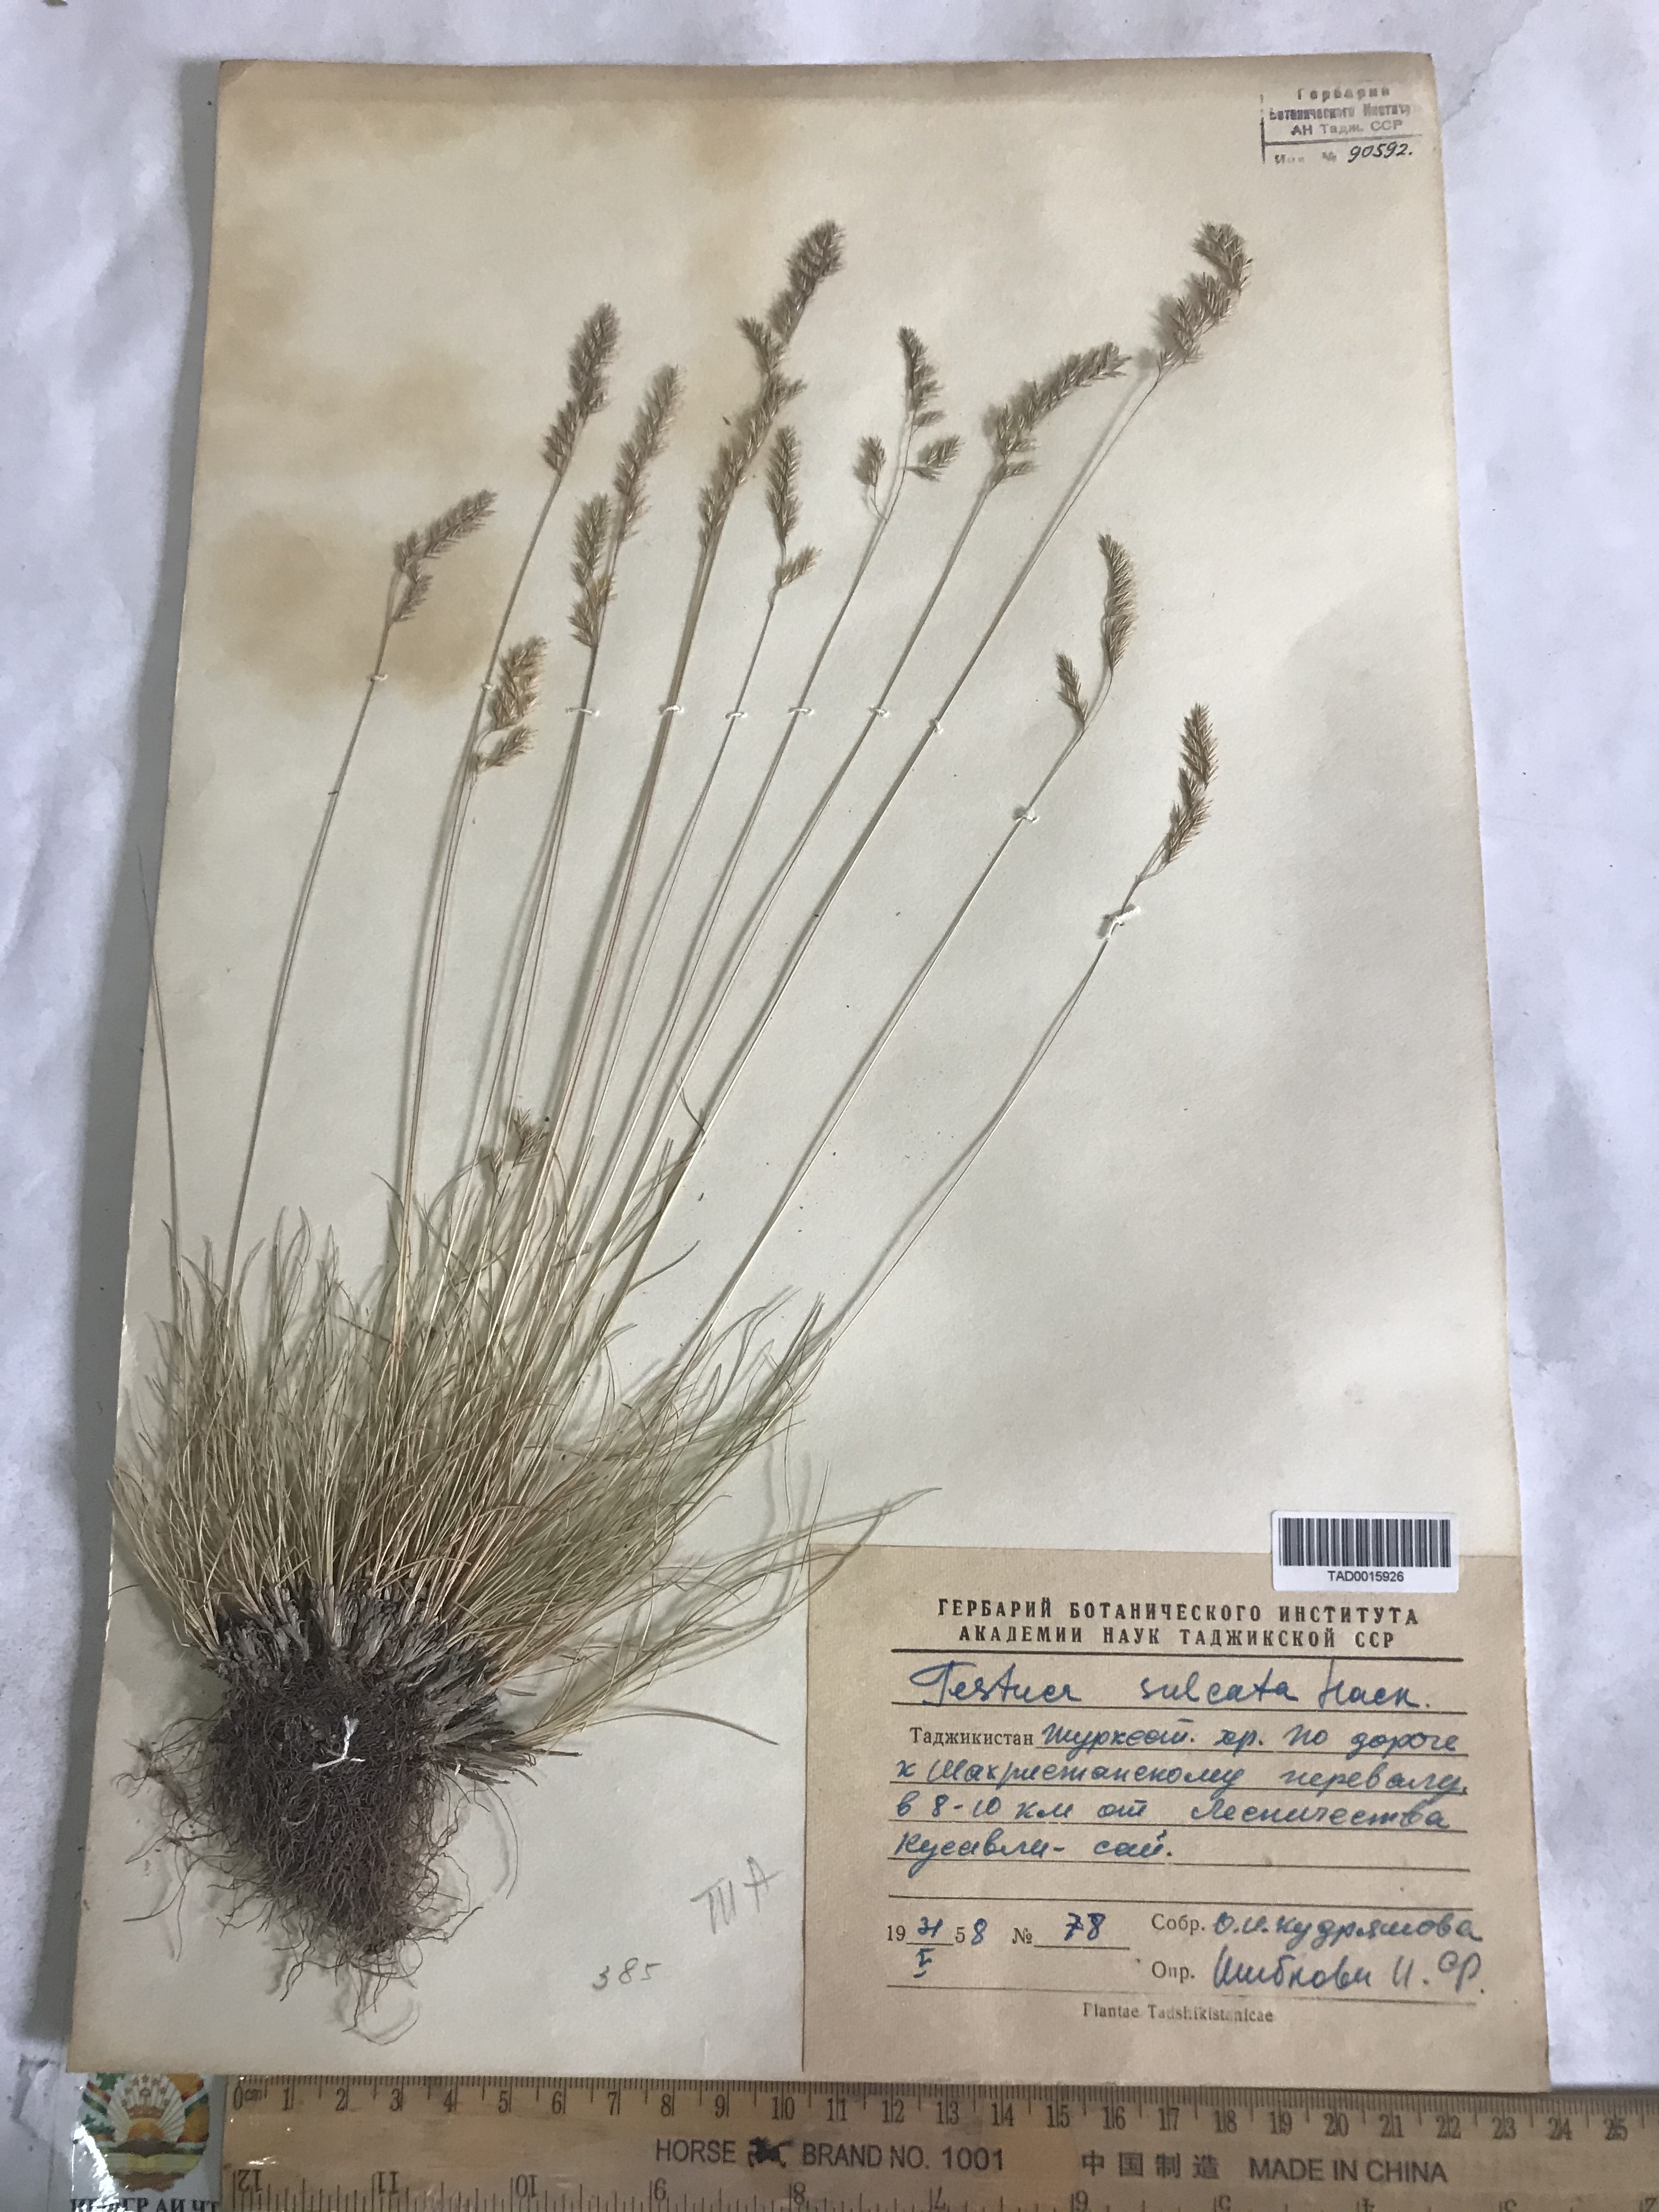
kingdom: Plantae
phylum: Tracheophyta
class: Liliopsida
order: Poales
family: Poaceae
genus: Festuca
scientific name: Festuca sulcata
